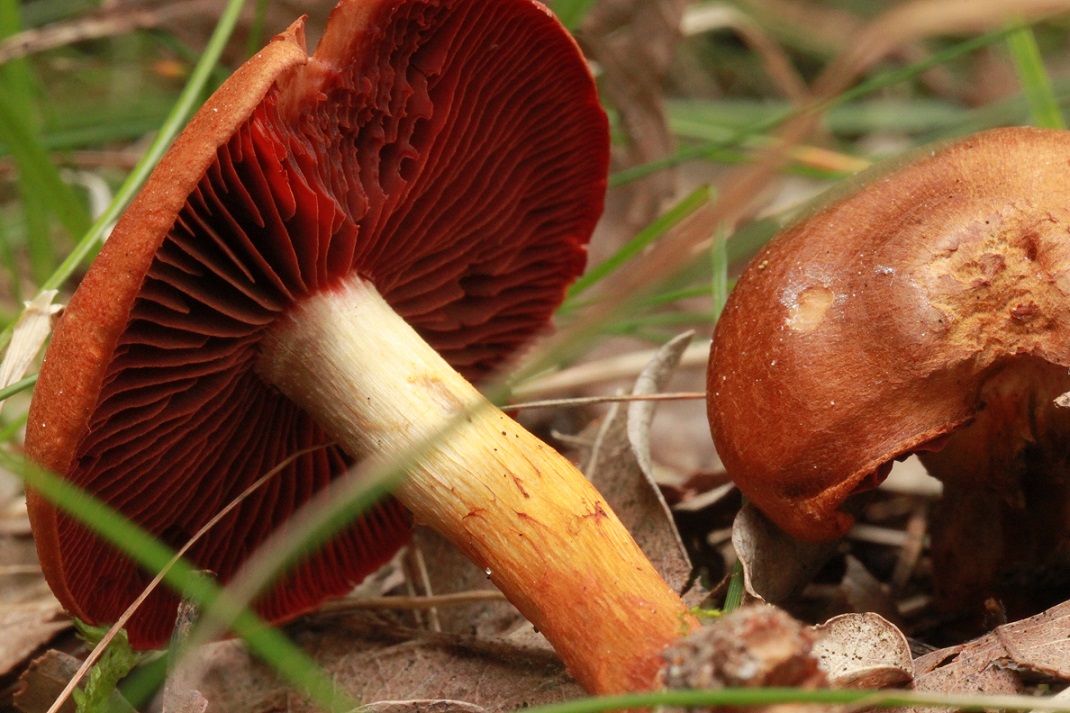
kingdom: Fungi
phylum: Basidiomycota
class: Agaricomycetes
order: Agaricales
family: Cortinariaceae
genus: Cortinarius
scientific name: Cortinarius purpureus
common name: brunrød slørhat
